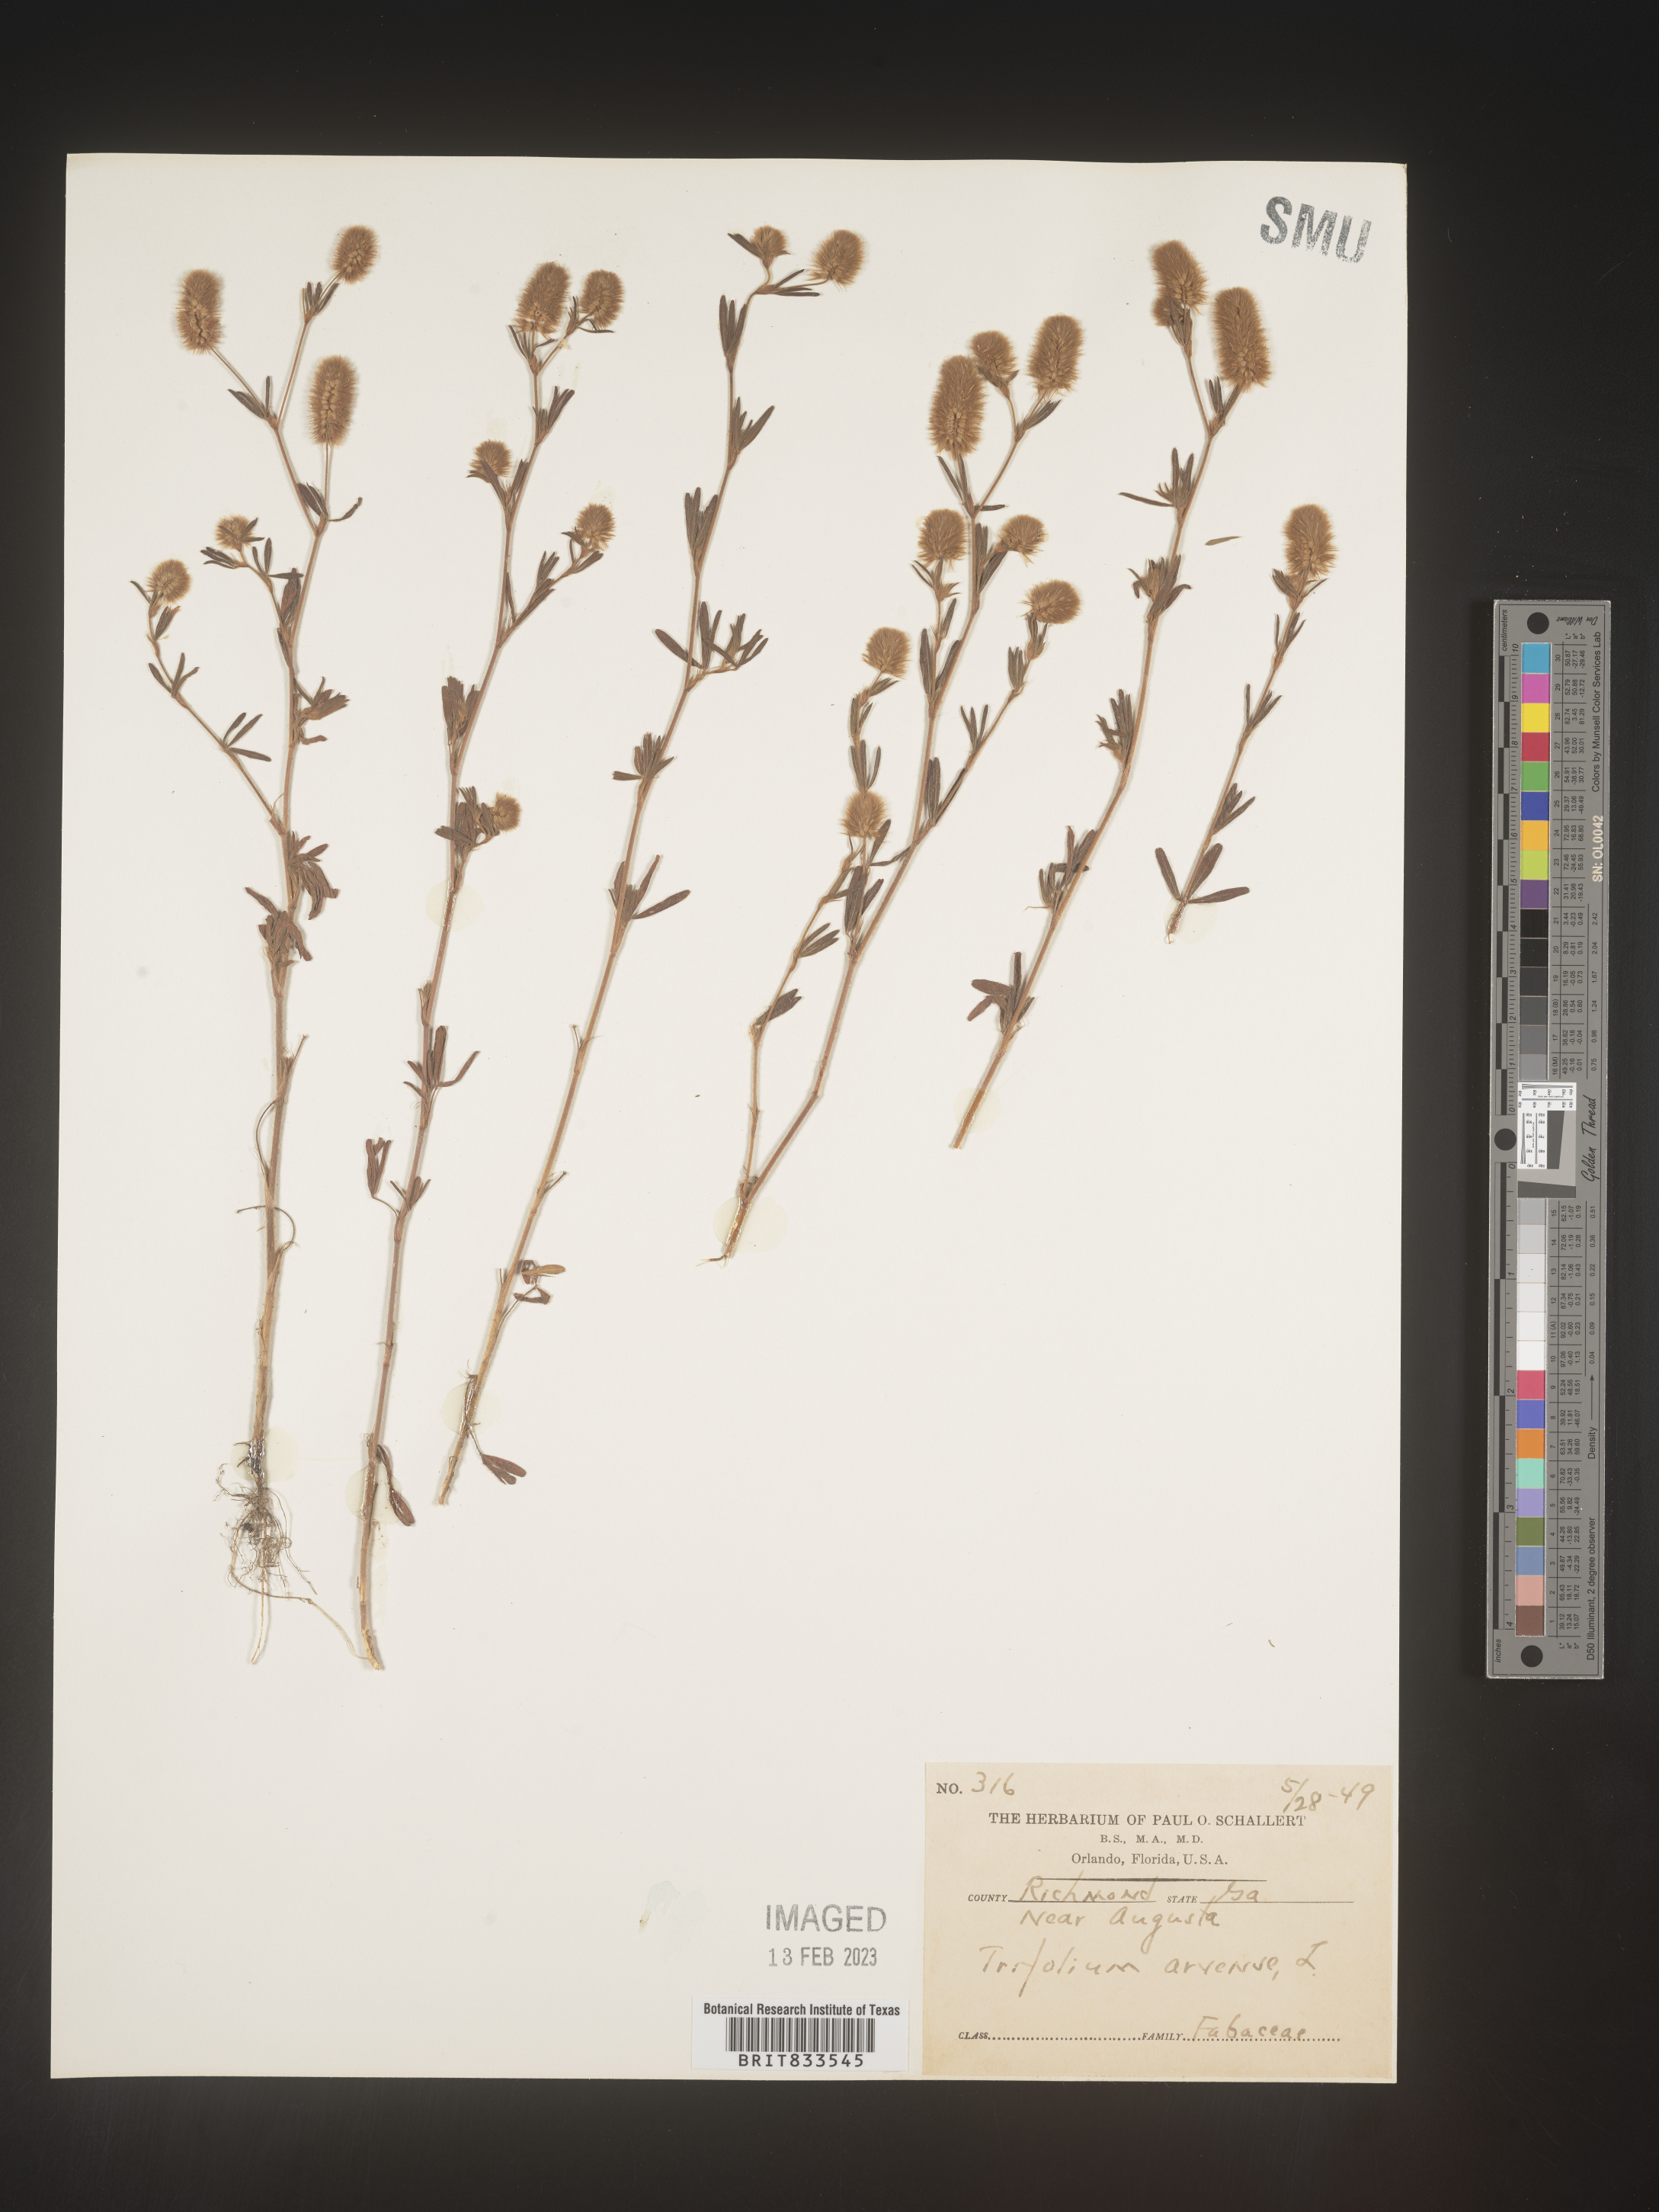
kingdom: Plantae
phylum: Tracheophyta
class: Magnoliopsida
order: Fabales
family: Fabaceae
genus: Trifolium
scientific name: Trifolium arvense
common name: Hare's-foot clover
